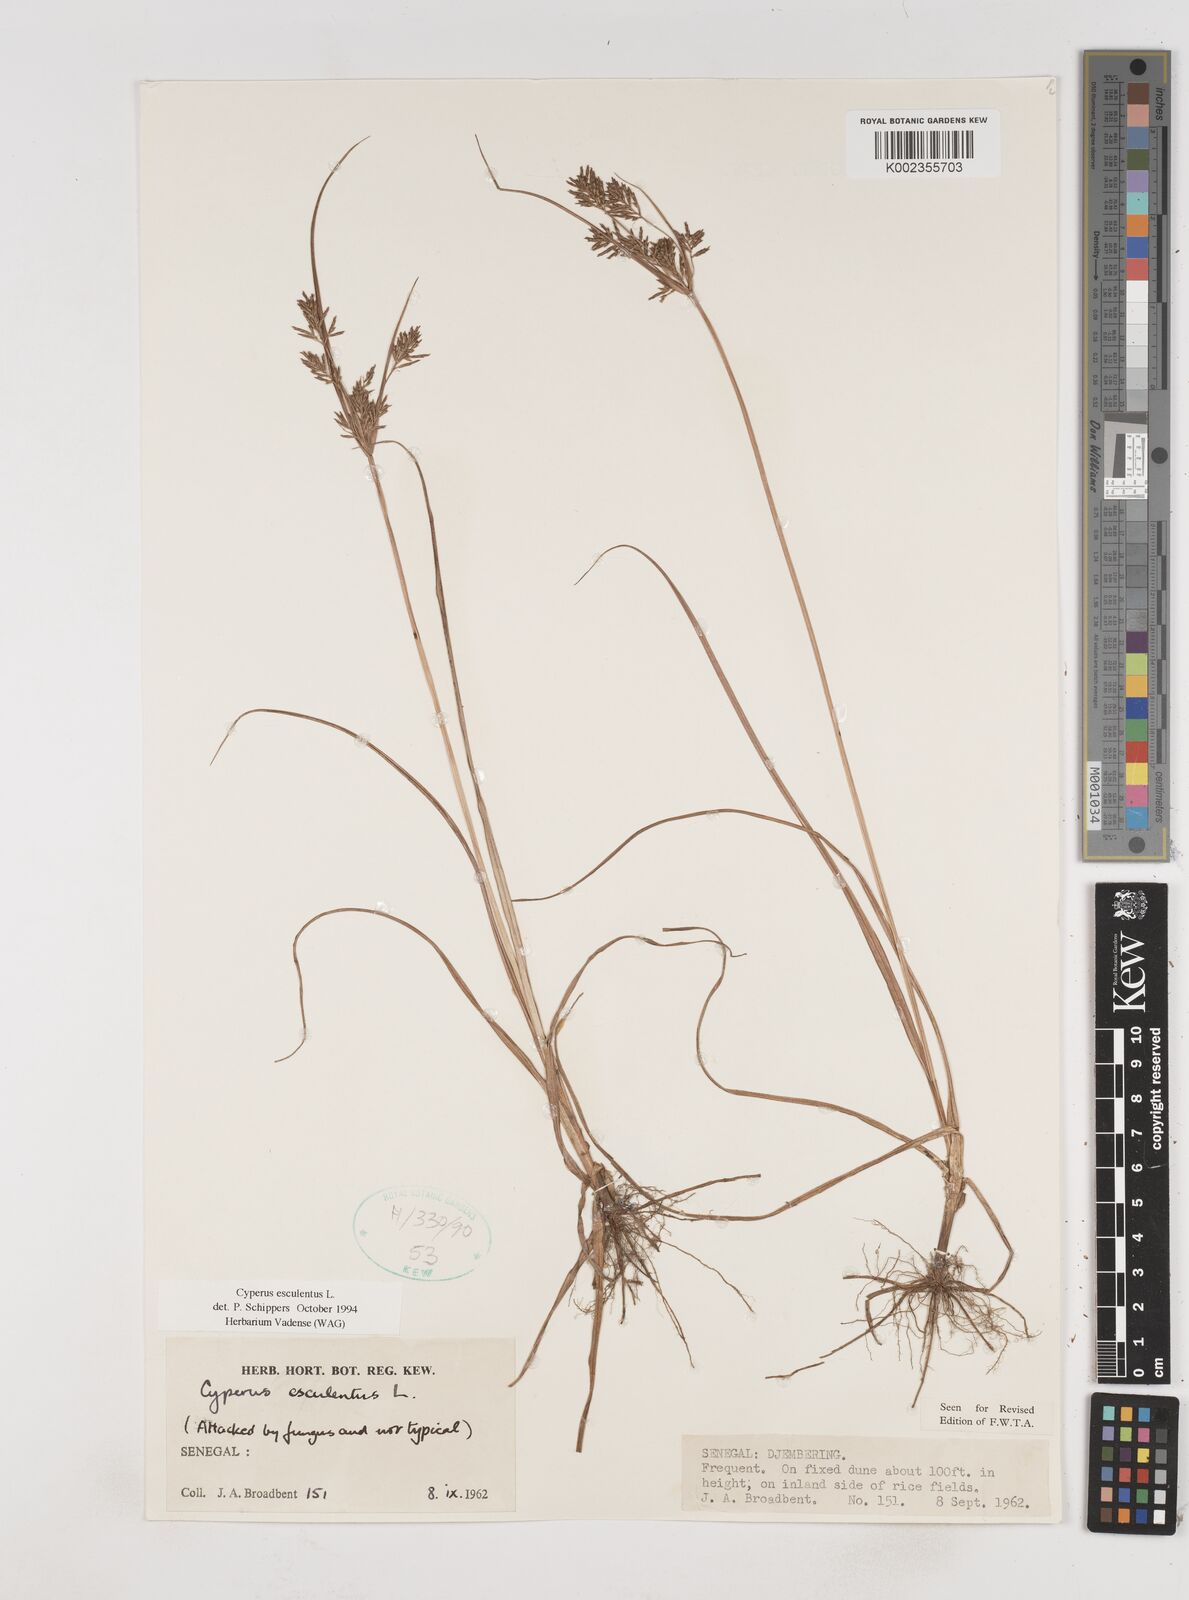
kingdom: Plantae
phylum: Tracheophyta
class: Liliopsida
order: Poales
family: Cyperaceae
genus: Cyperus
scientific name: Cyperus esculentus
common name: Yellow nutsedge
